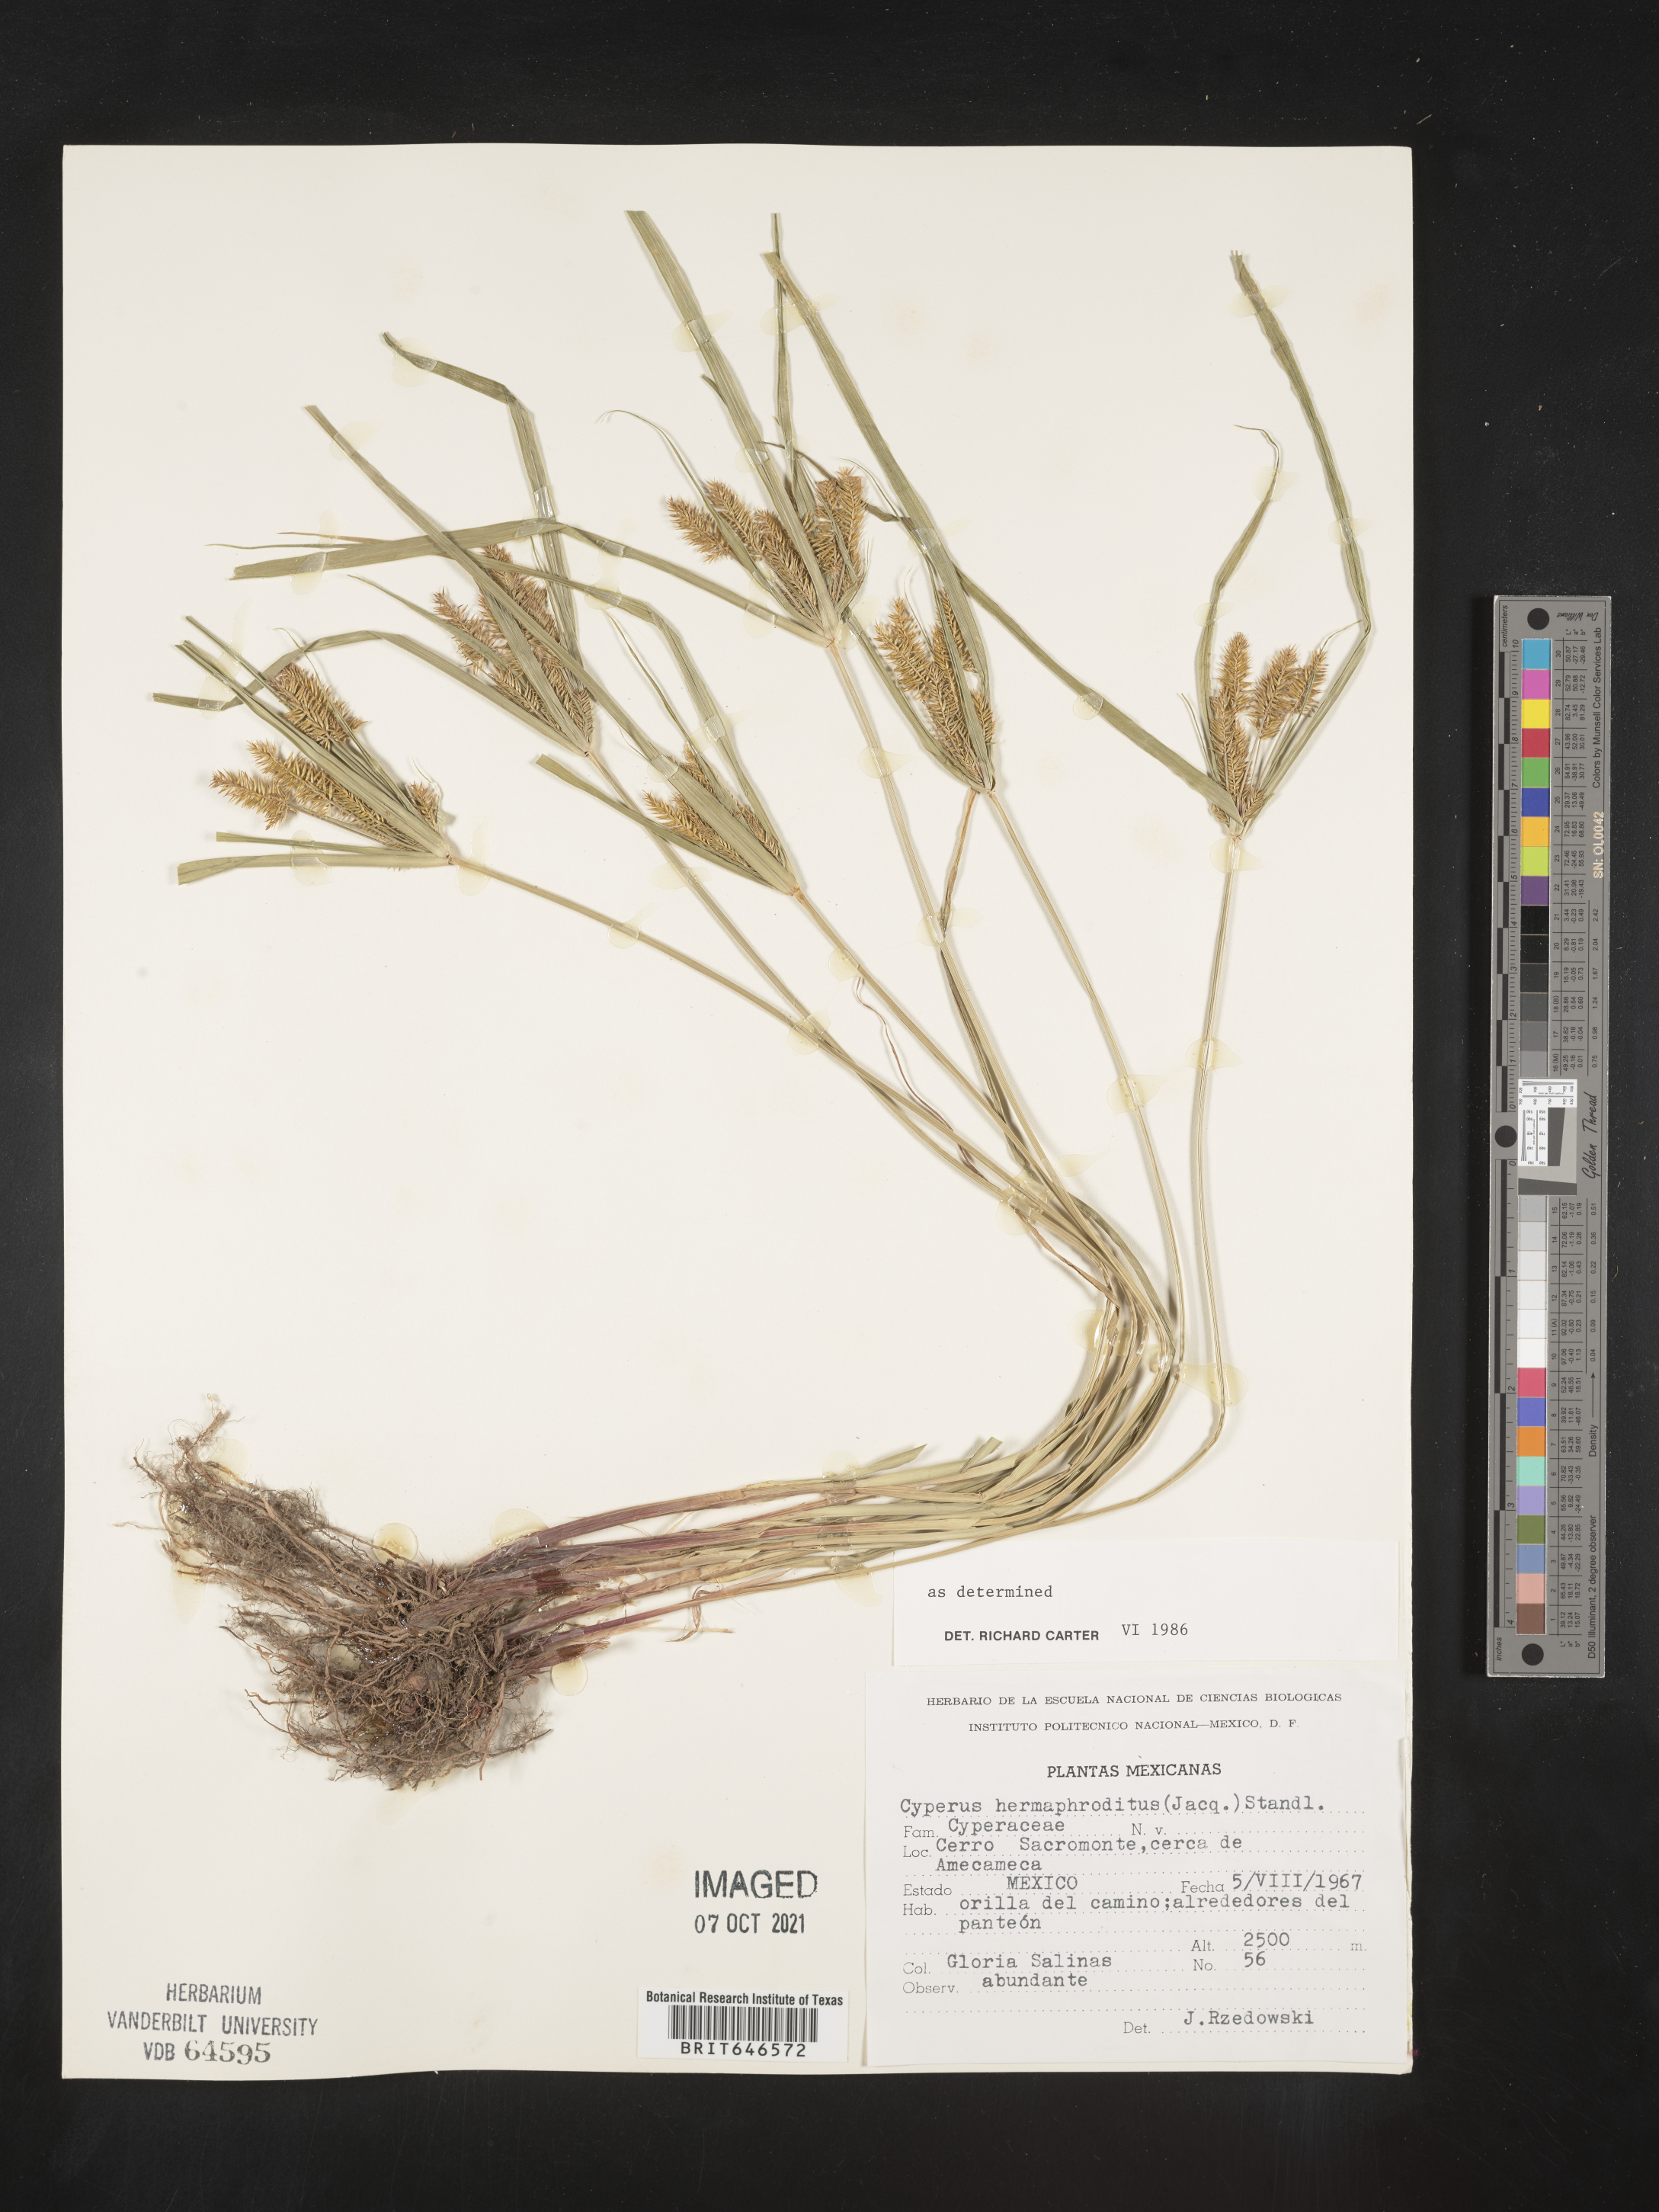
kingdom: Plantae
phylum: Tracheophyta
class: Liliopsida
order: Poales
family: Cyperaceae
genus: Cyperus
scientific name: Cyperus
